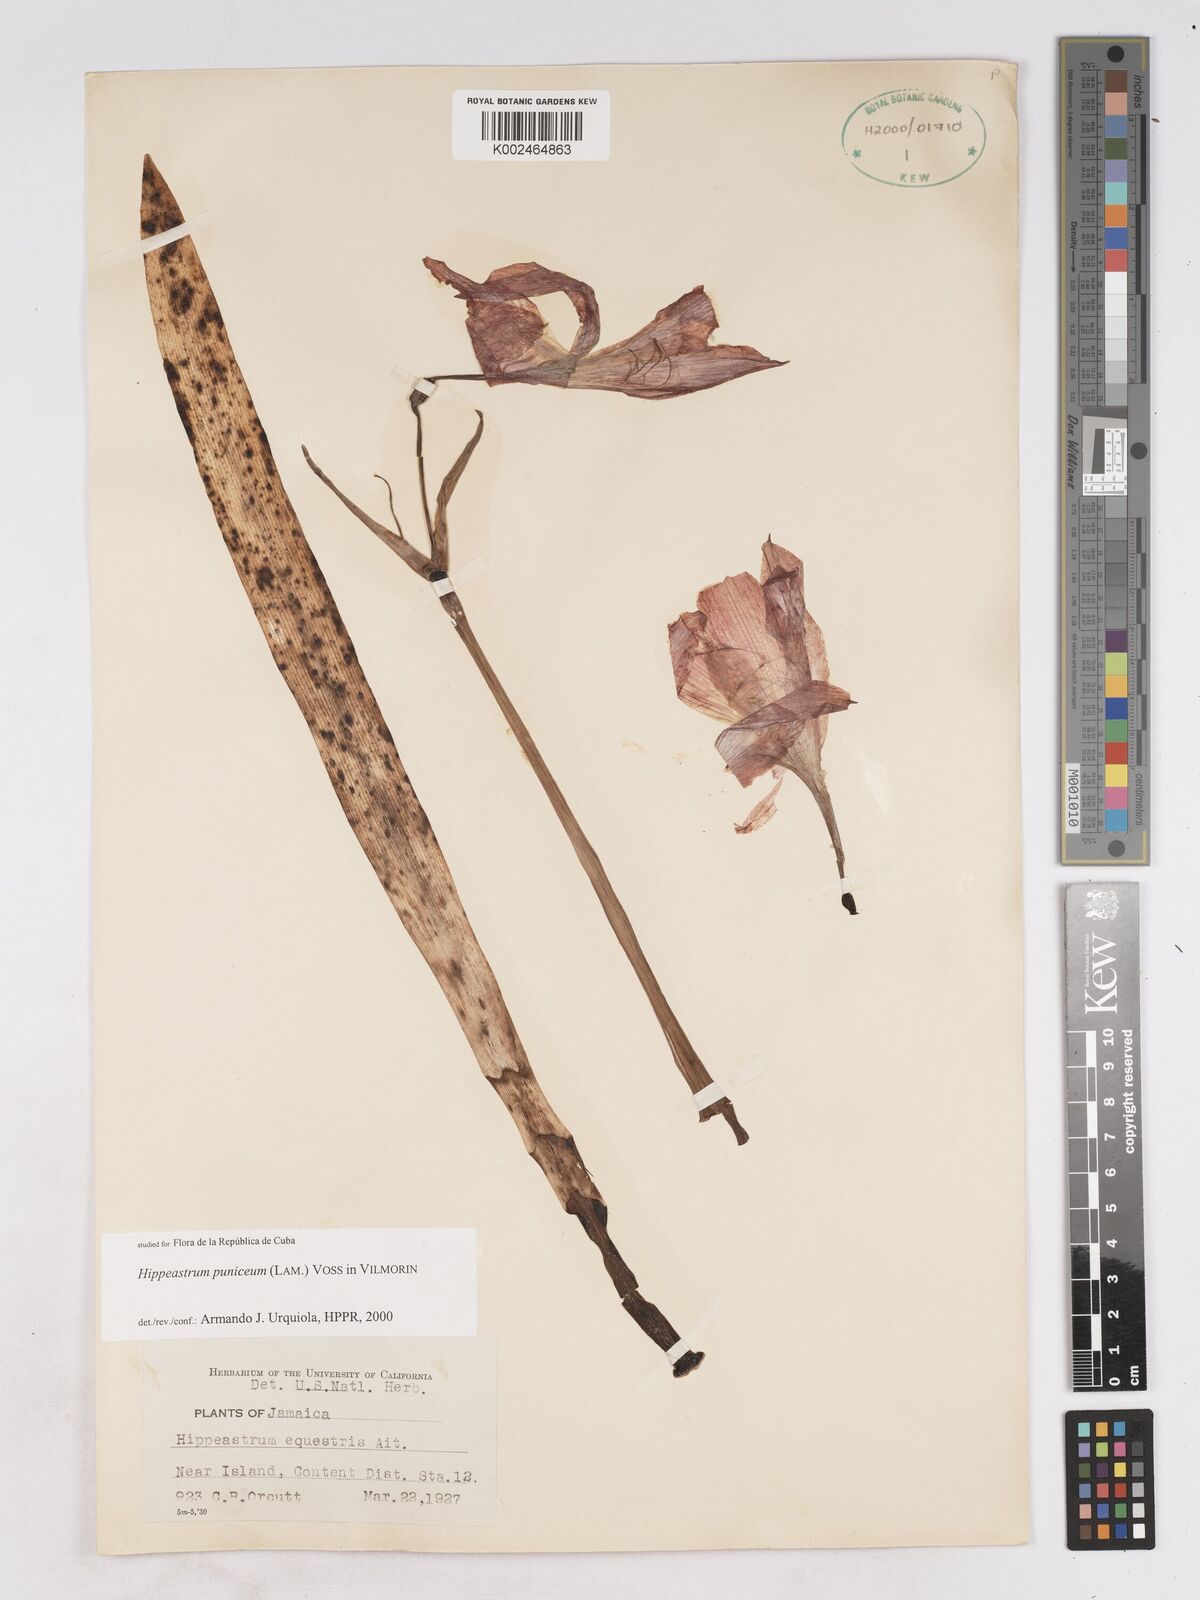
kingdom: Plantae
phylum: Tracheophyta
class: Liliopsida
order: Asparagales
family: Amaryllidaceae
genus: Hippeastrum
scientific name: Hippeastrum puniceum
